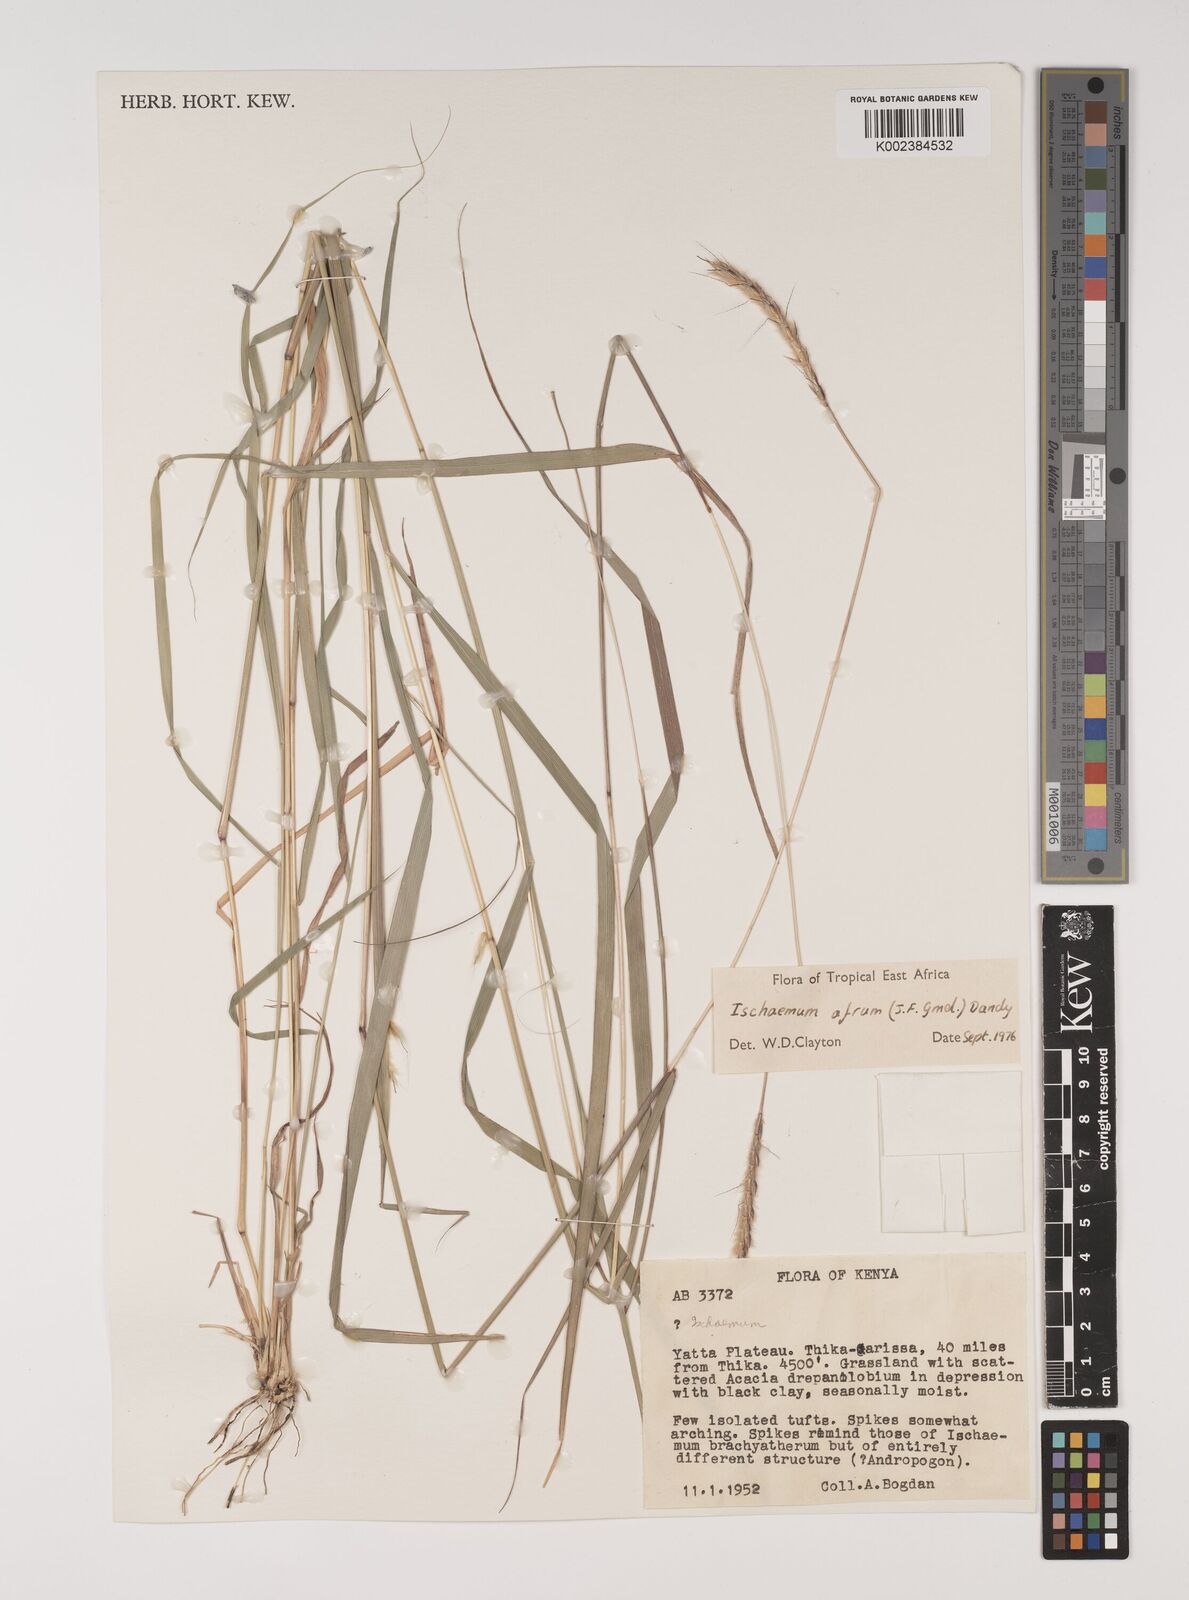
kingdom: Plantae
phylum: Tracheophyta
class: Liliopsida
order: Poales
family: Poaceae
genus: Ischaemum
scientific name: Ischaemum afrum
